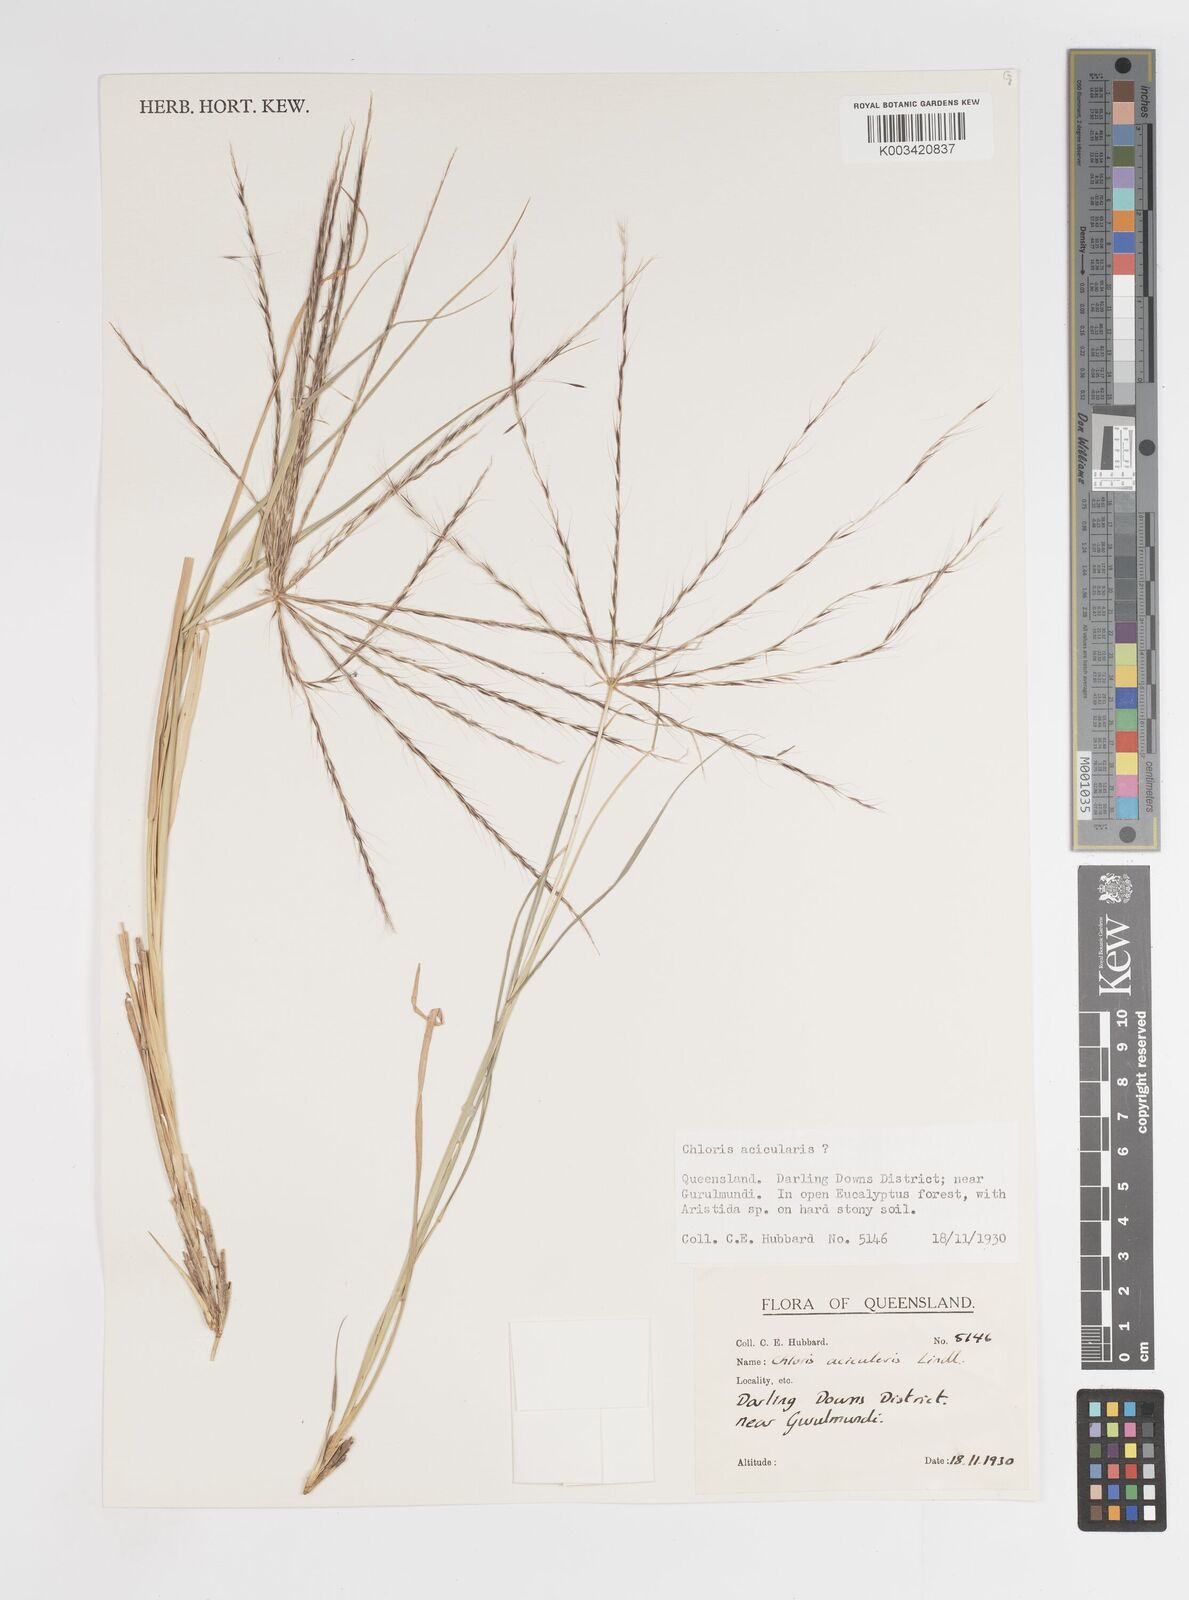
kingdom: Plantae
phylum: Tracheophyta
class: Liliopsida
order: Poales
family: Poaceae
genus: Enteropogon
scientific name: Enteropogon acicularis
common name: Curly windmill grass
